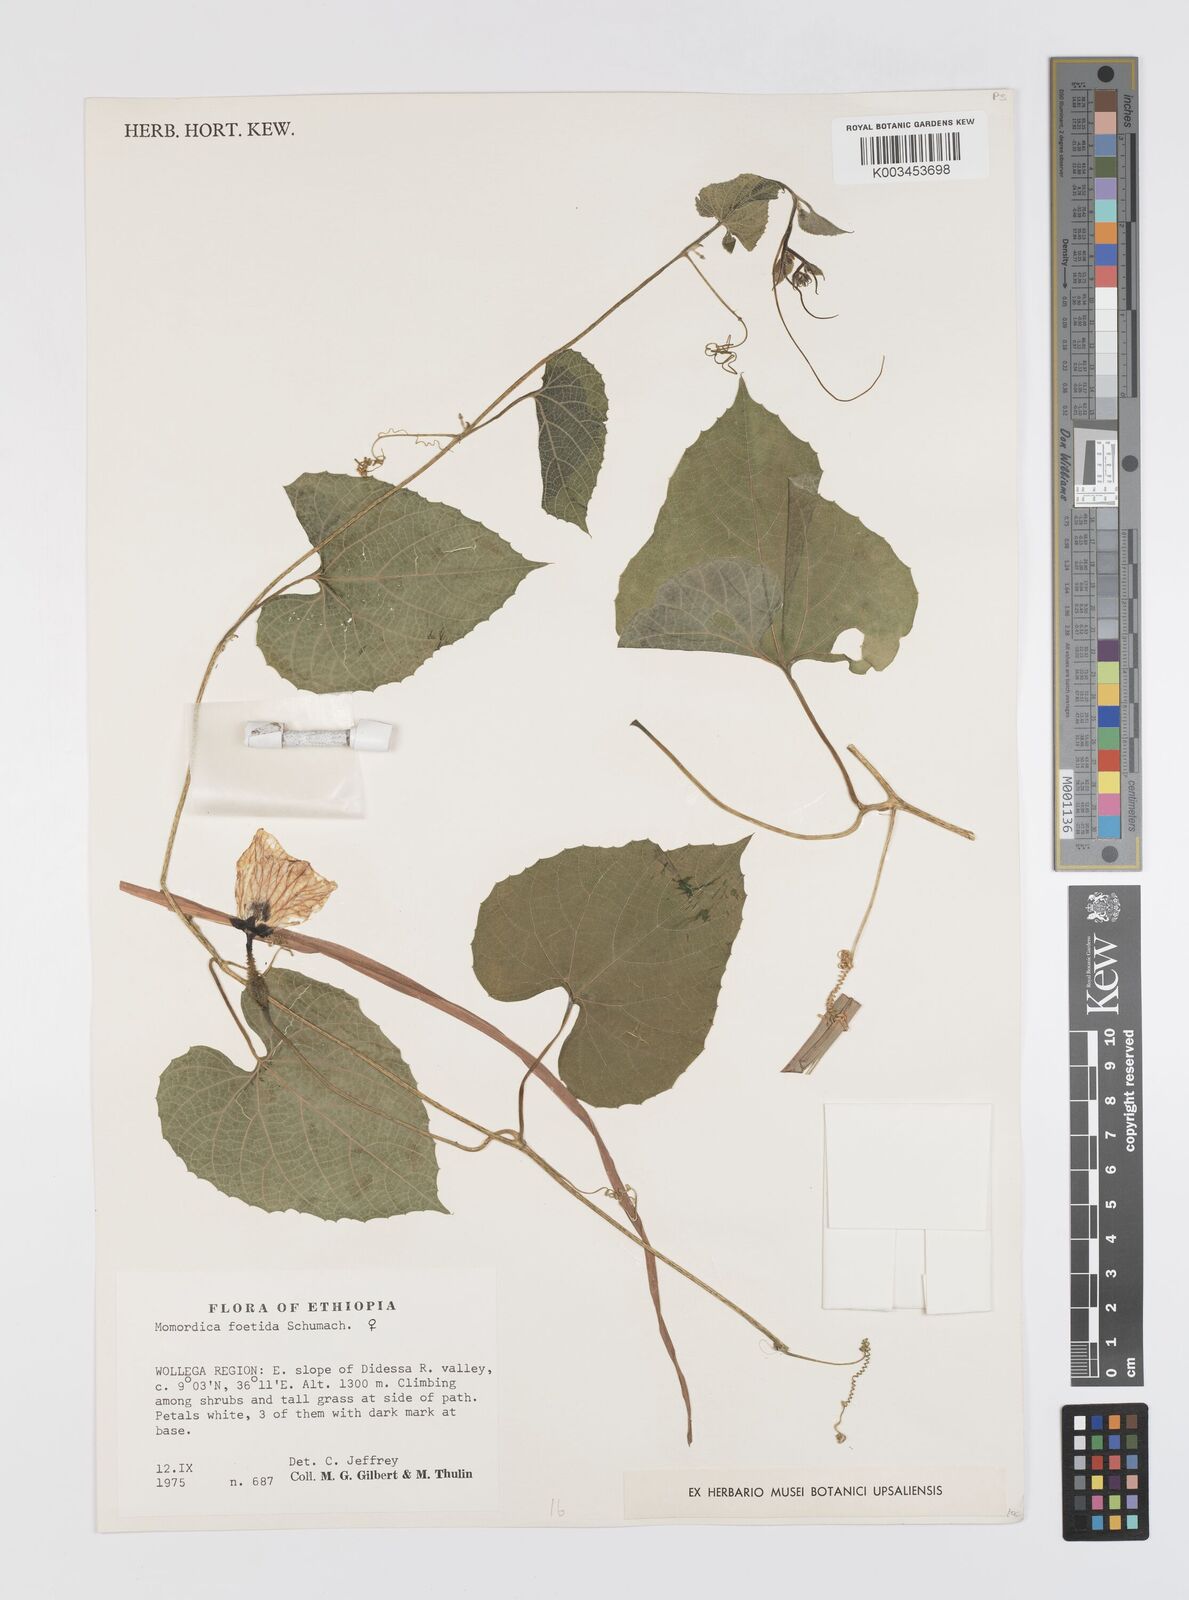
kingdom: Plantae
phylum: Tracheophyta
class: Magnoliopsida
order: Cucurbitales
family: Cucurbitaceae
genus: Momordica
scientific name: Momordica foetida
